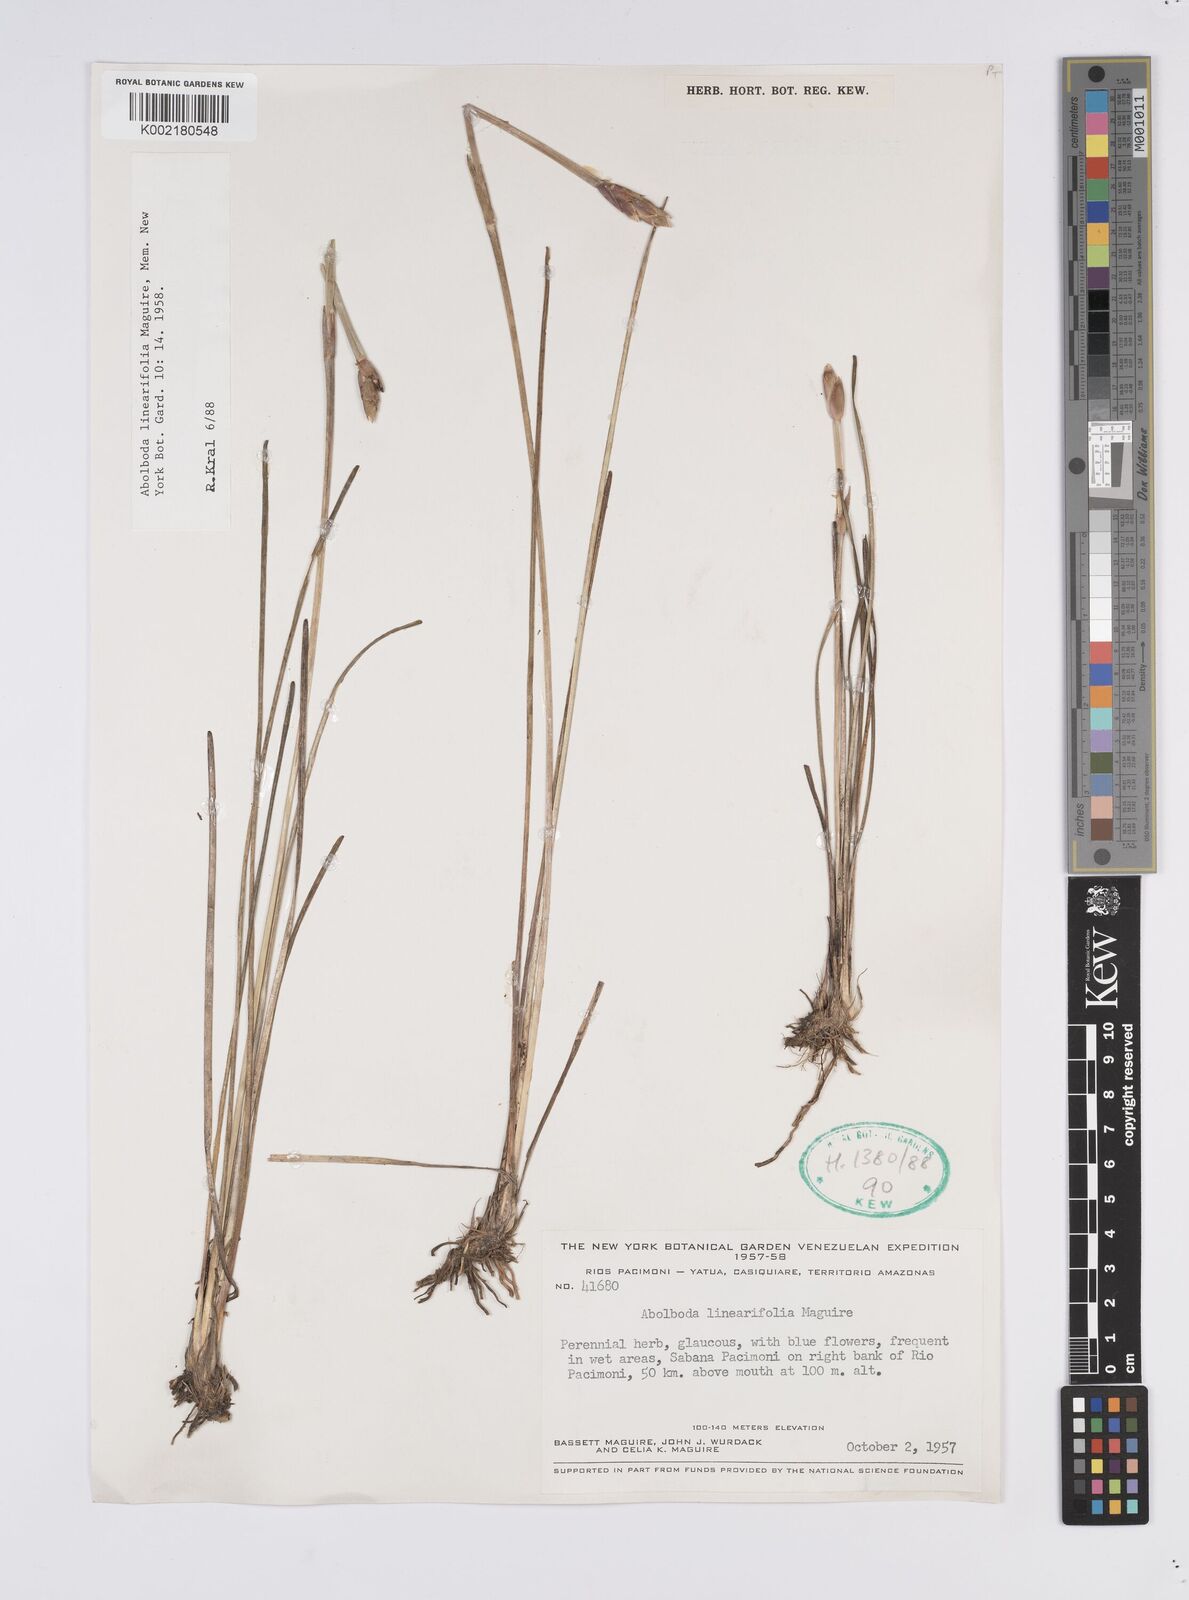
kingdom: Plantae
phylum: Tracheophyta
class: Liliopsida
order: Poales
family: Xyridaceae
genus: Abolboda
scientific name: Abolboda linearifolia
